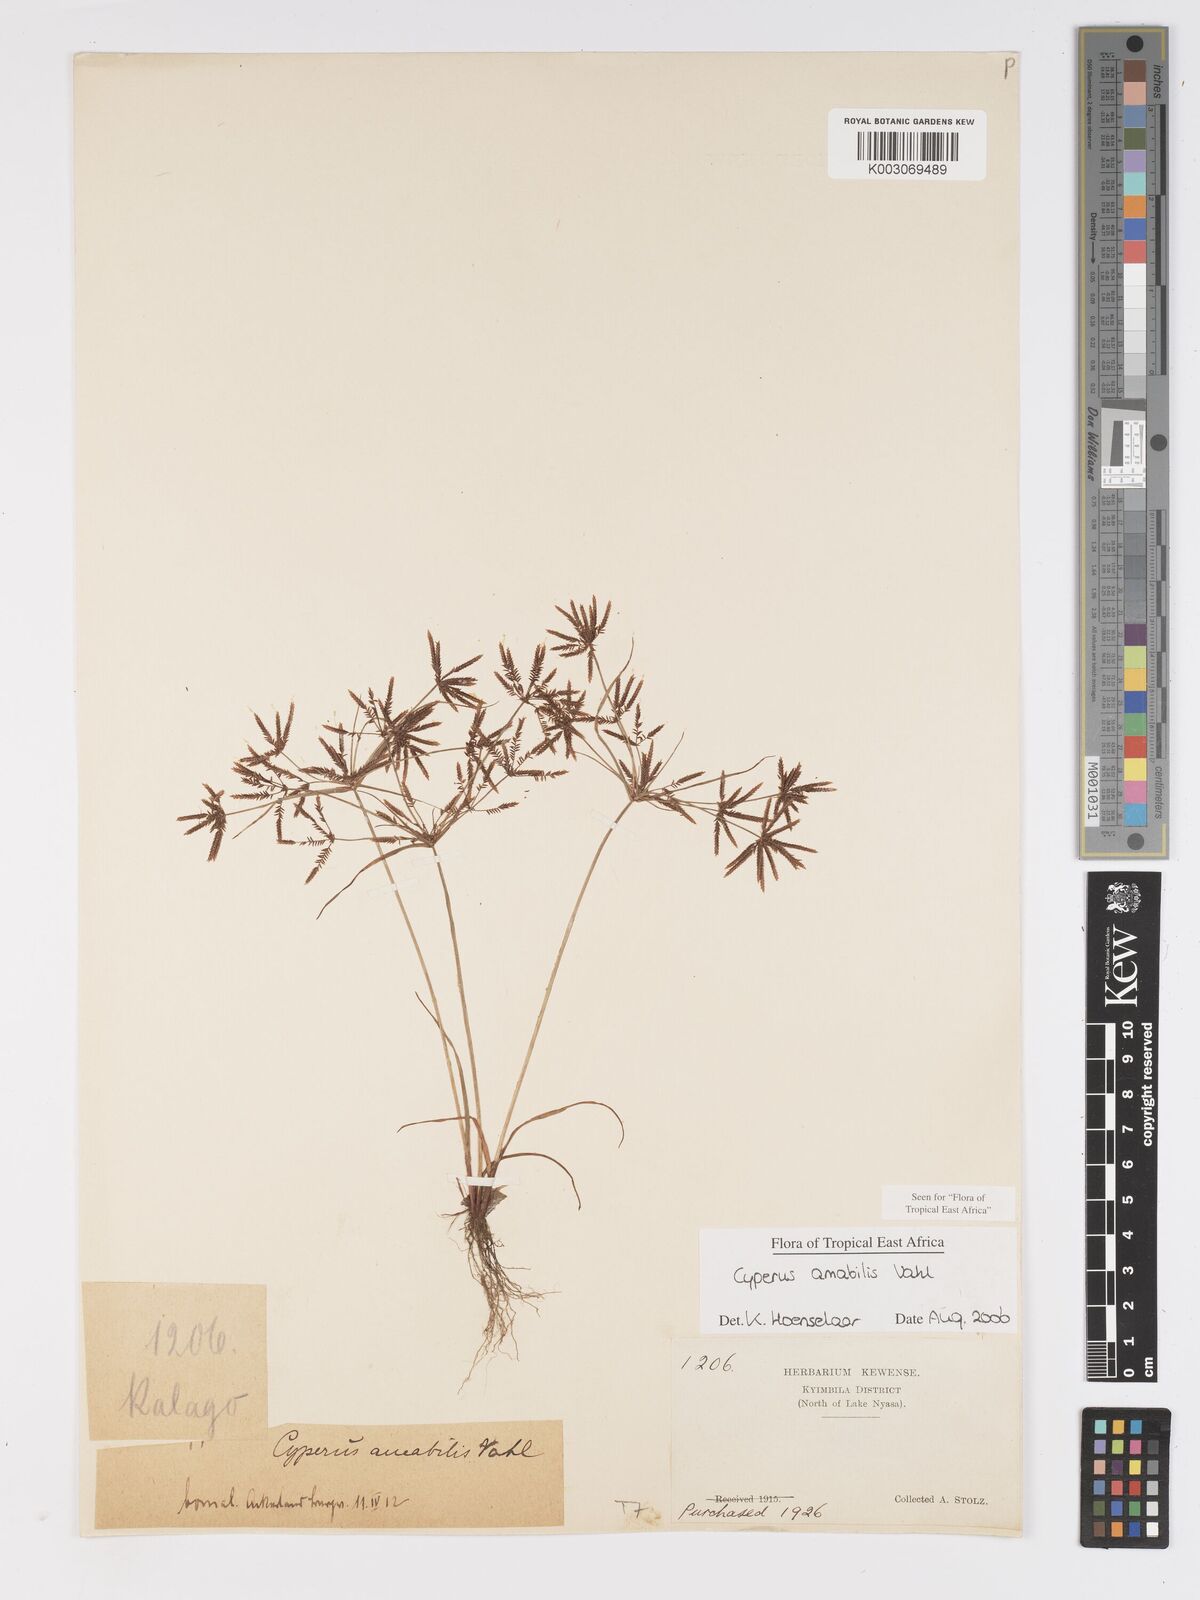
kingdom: Plantae
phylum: Tracheophyta
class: Liliopsida
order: Poales
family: Cyperaceae
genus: Cyperus
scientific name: Cyperus amabilis
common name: Foothill flat sedge
